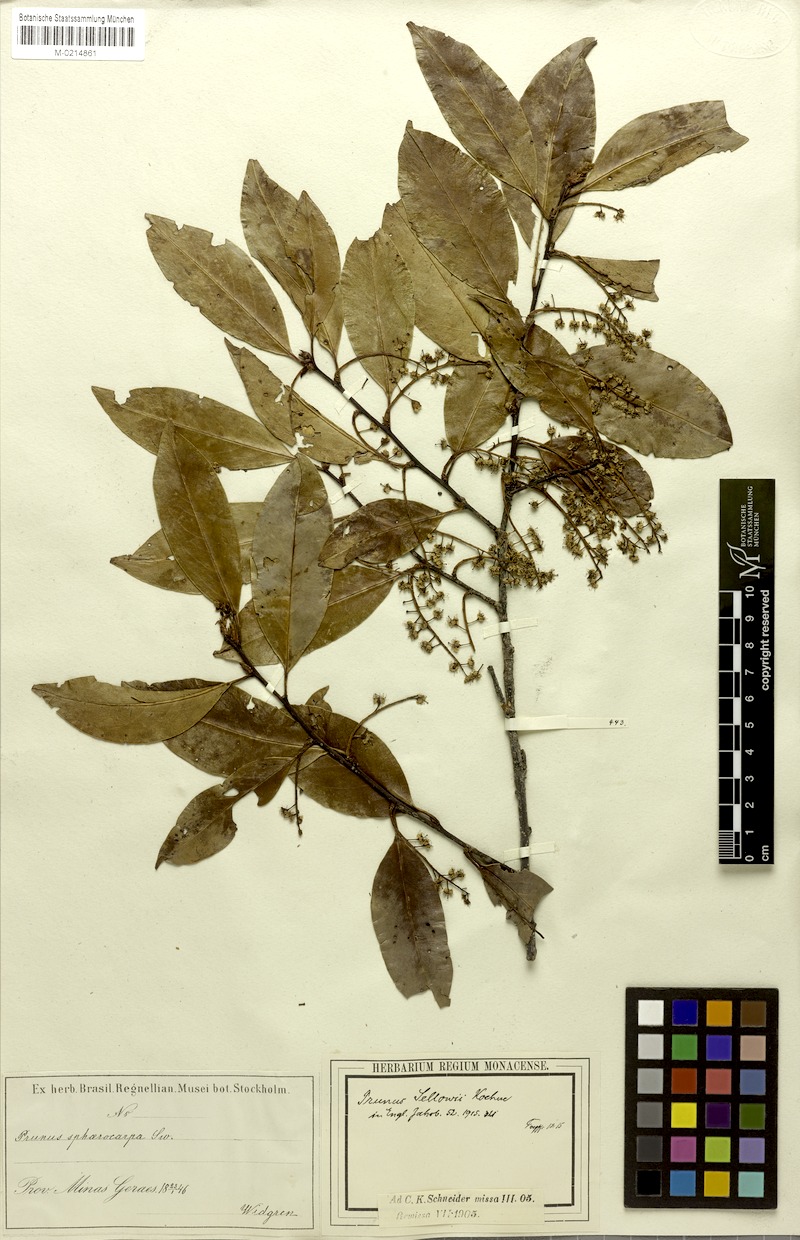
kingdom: Plantae
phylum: Tracheophyta
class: Magnoliopsida
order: Rosales
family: Rosaceae
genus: Prunus
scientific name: Prunus reflexa
